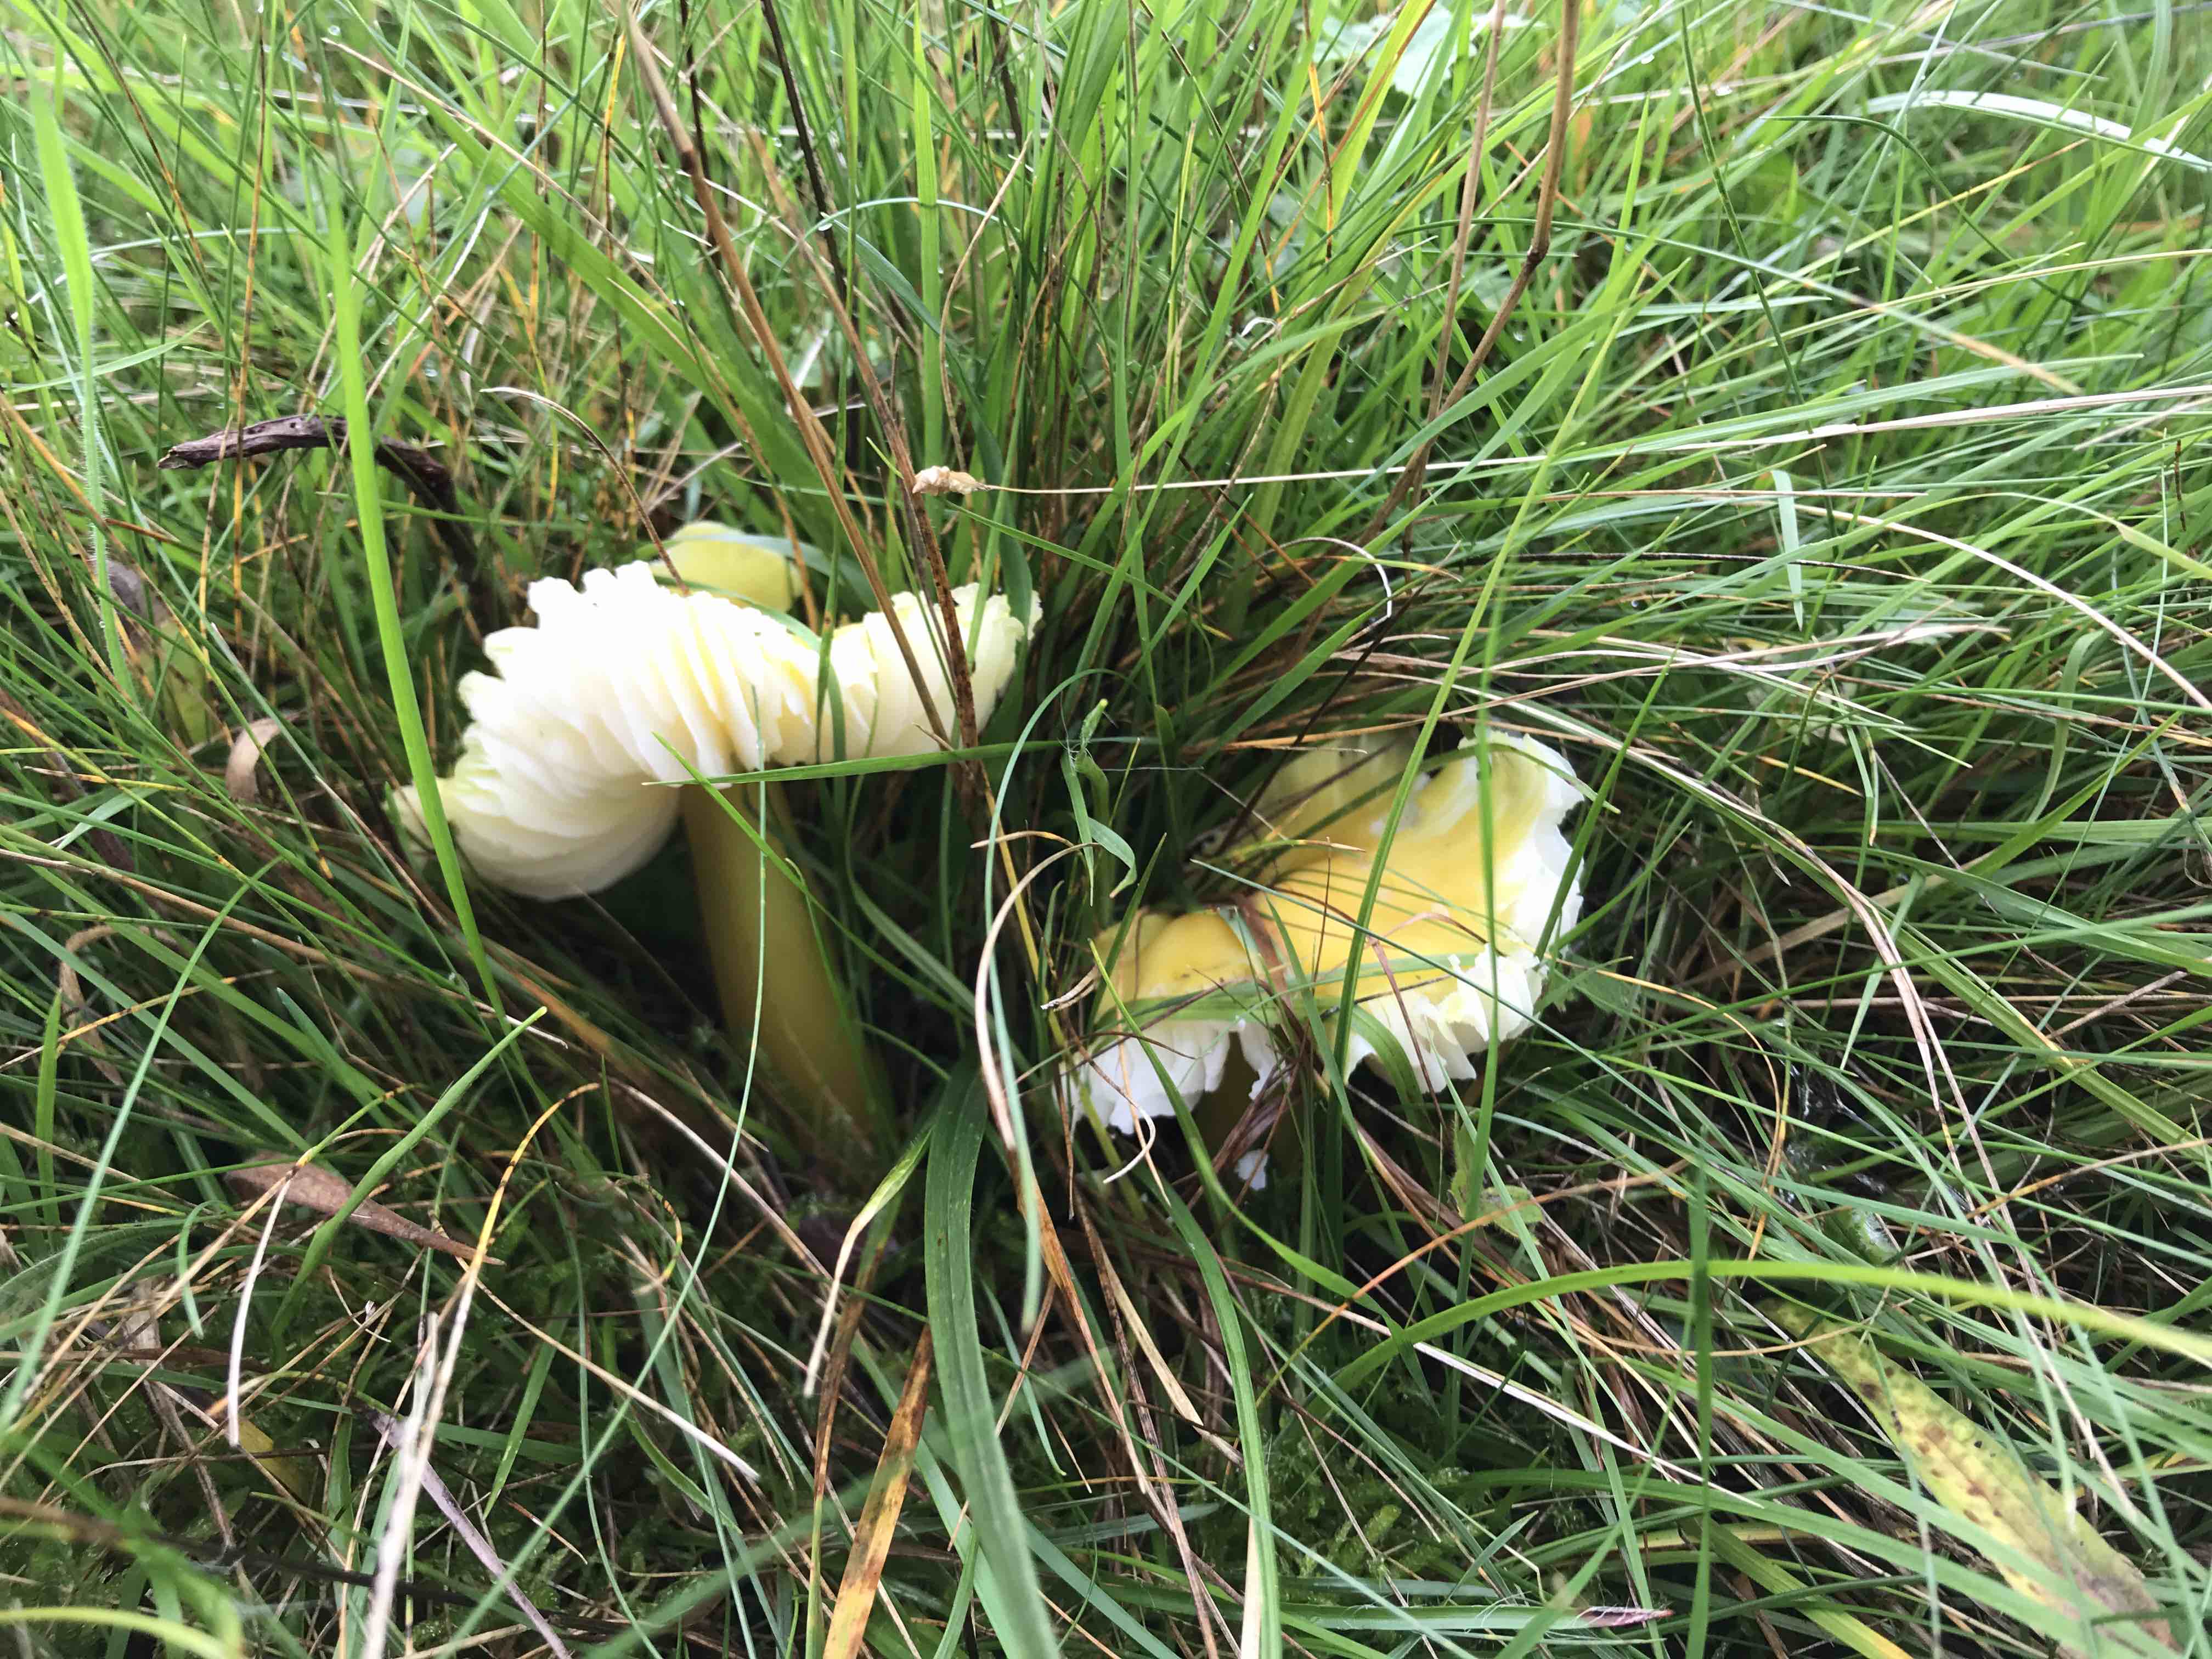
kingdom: Fungi
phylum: Basidiomycota
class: Agaricomycetes
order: Agaricales
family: Hygrophoraceae
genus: Hygrocybe
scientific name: Hygrocybe citrinovirens
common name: grøngul vokshat
